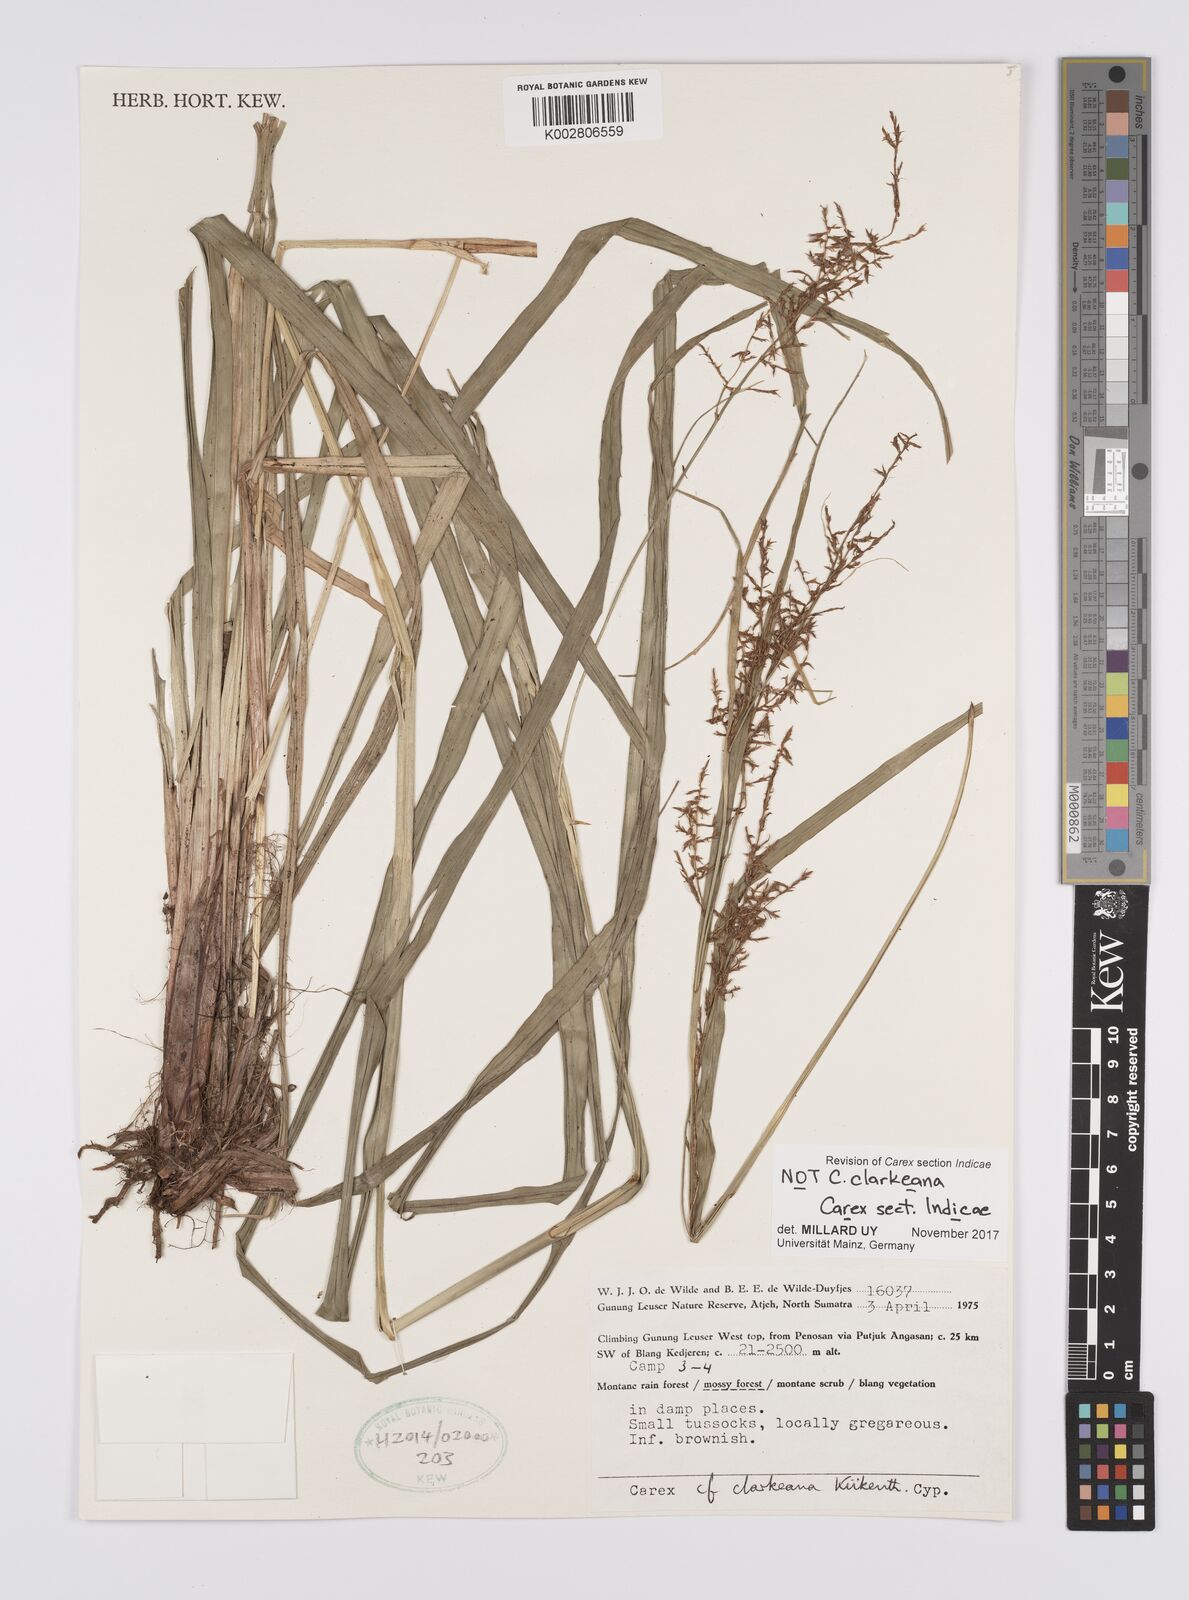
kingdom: Plantae
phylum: Tracheophyta
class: Liliopsida
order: Poales
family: Cyperaceae
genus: Carex
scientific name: Carex
